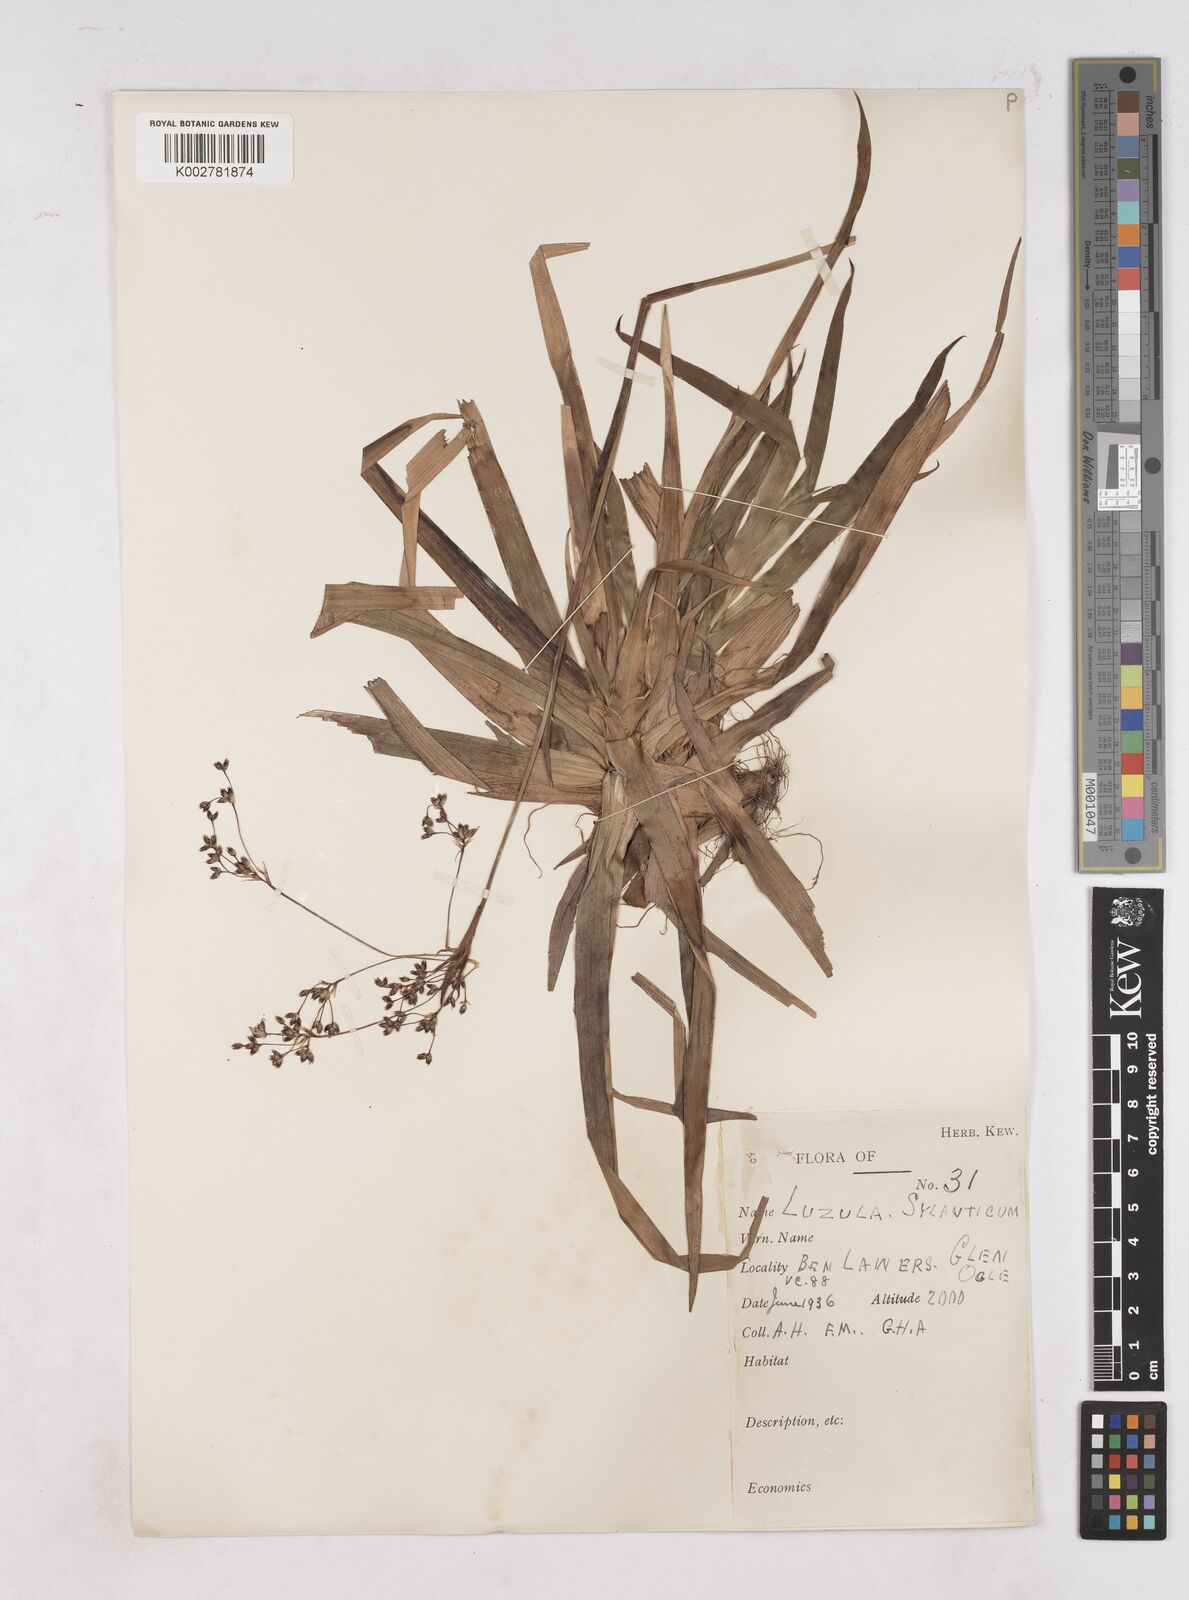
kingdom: Plantae
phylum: Tracheophyta
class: Liliopsida
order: Poales
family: Juncaceae
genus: Luzula
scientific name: Luzula sylvatica
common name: Great wood-rush
